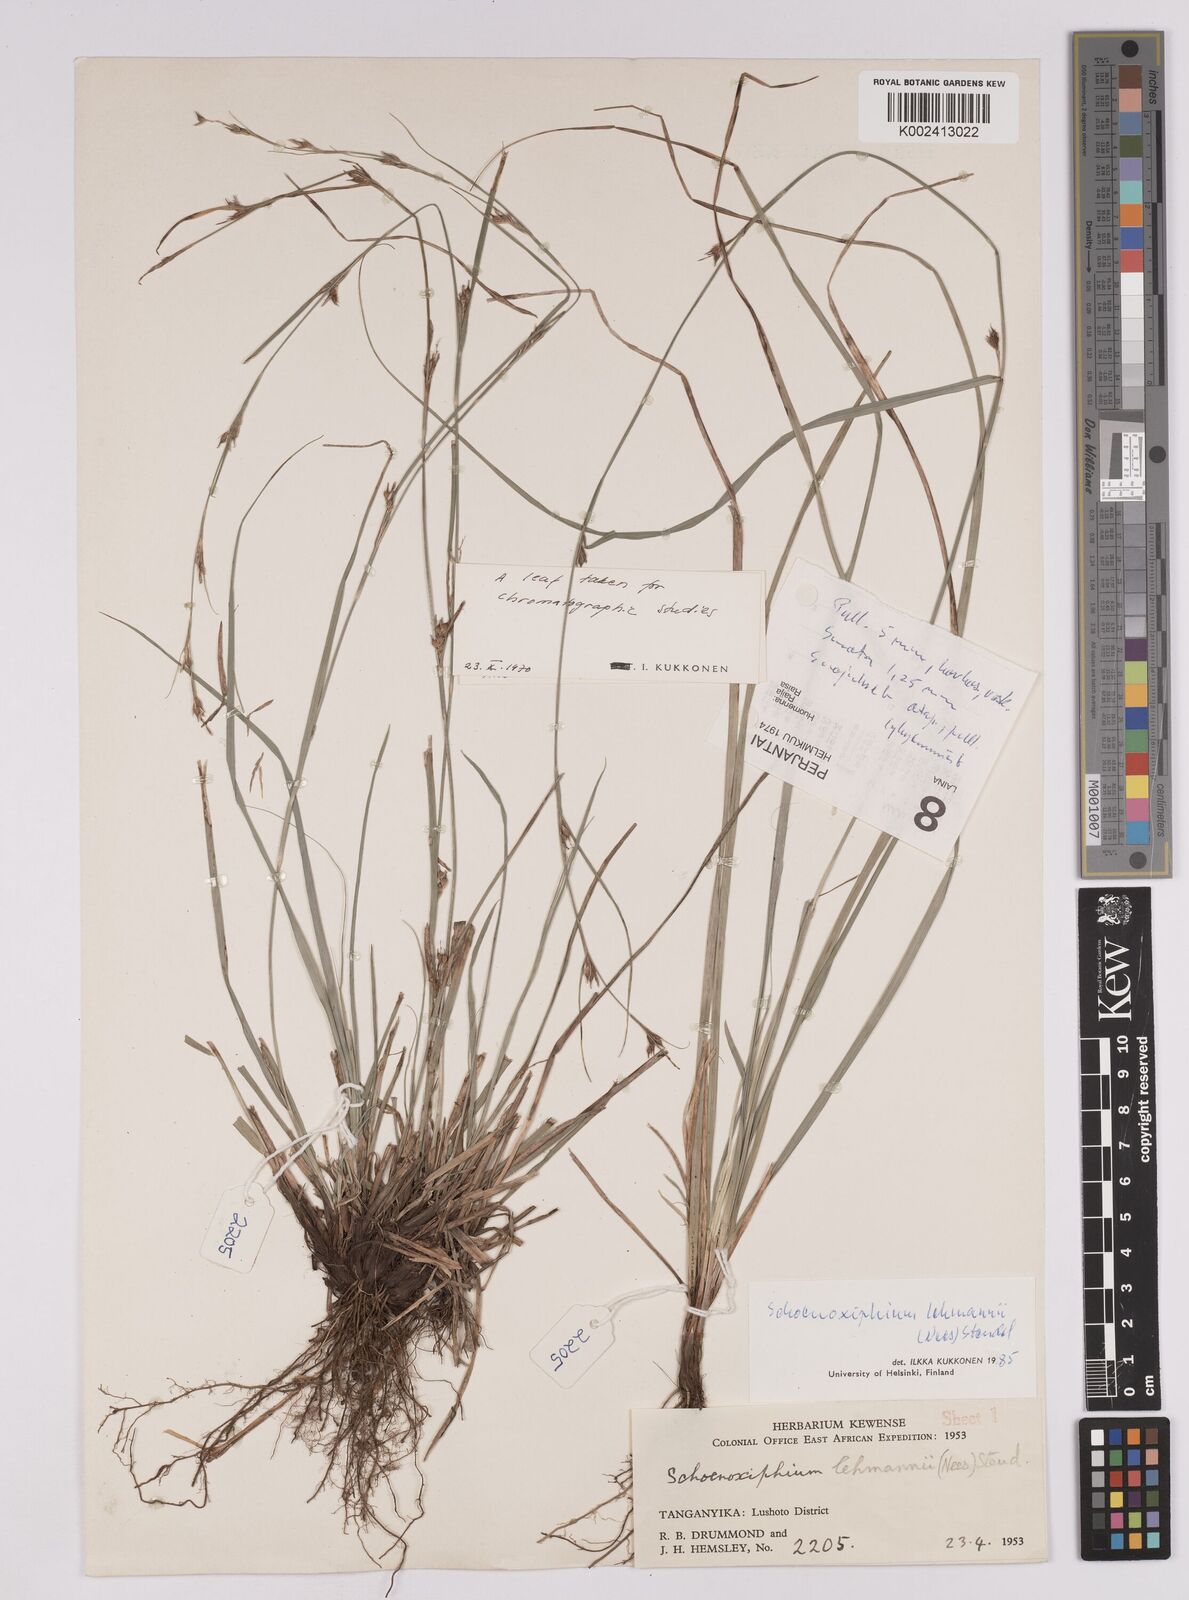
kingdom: Plantae
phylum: Tracheophyta
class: Liliopsida
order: Poales
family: Cyperaceae
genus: Carex
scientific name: Carex uhligii
